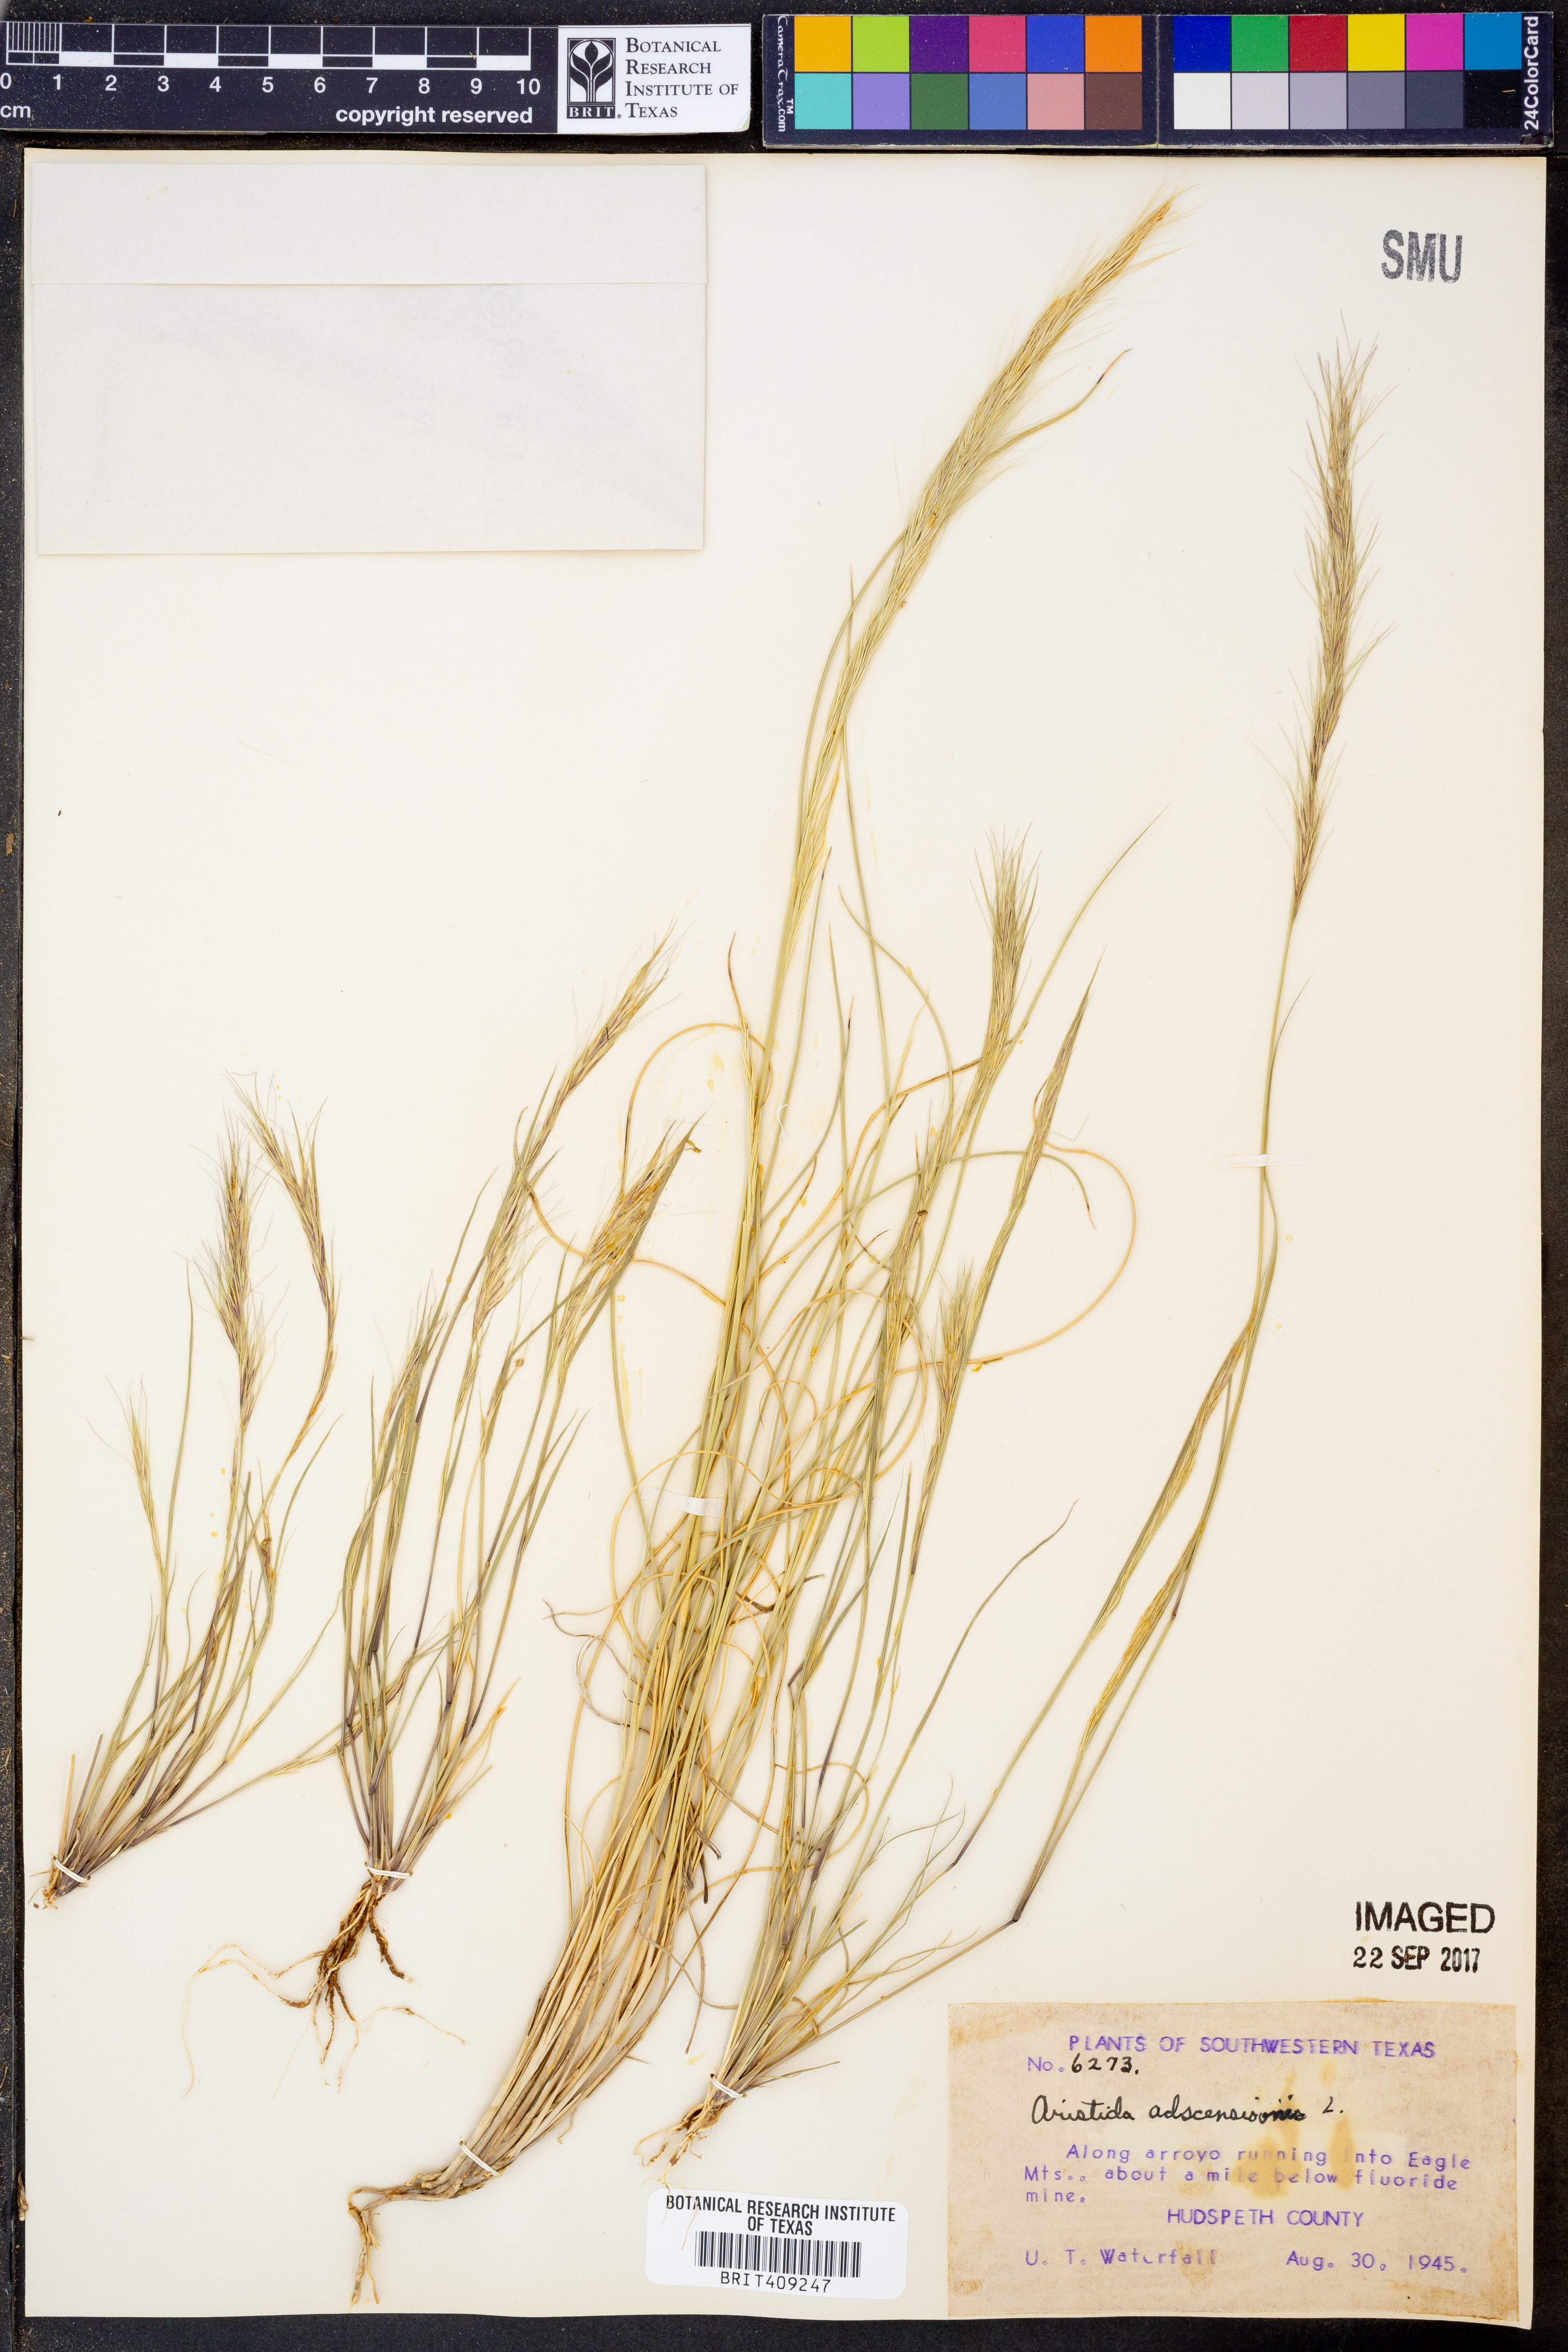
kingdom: Plantae
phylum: Tracheophyta
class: Liliopsida
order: Poales
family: Poaceae
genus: Aristida
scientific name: Aristida adscensionis
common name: Sixweeks threeawn
